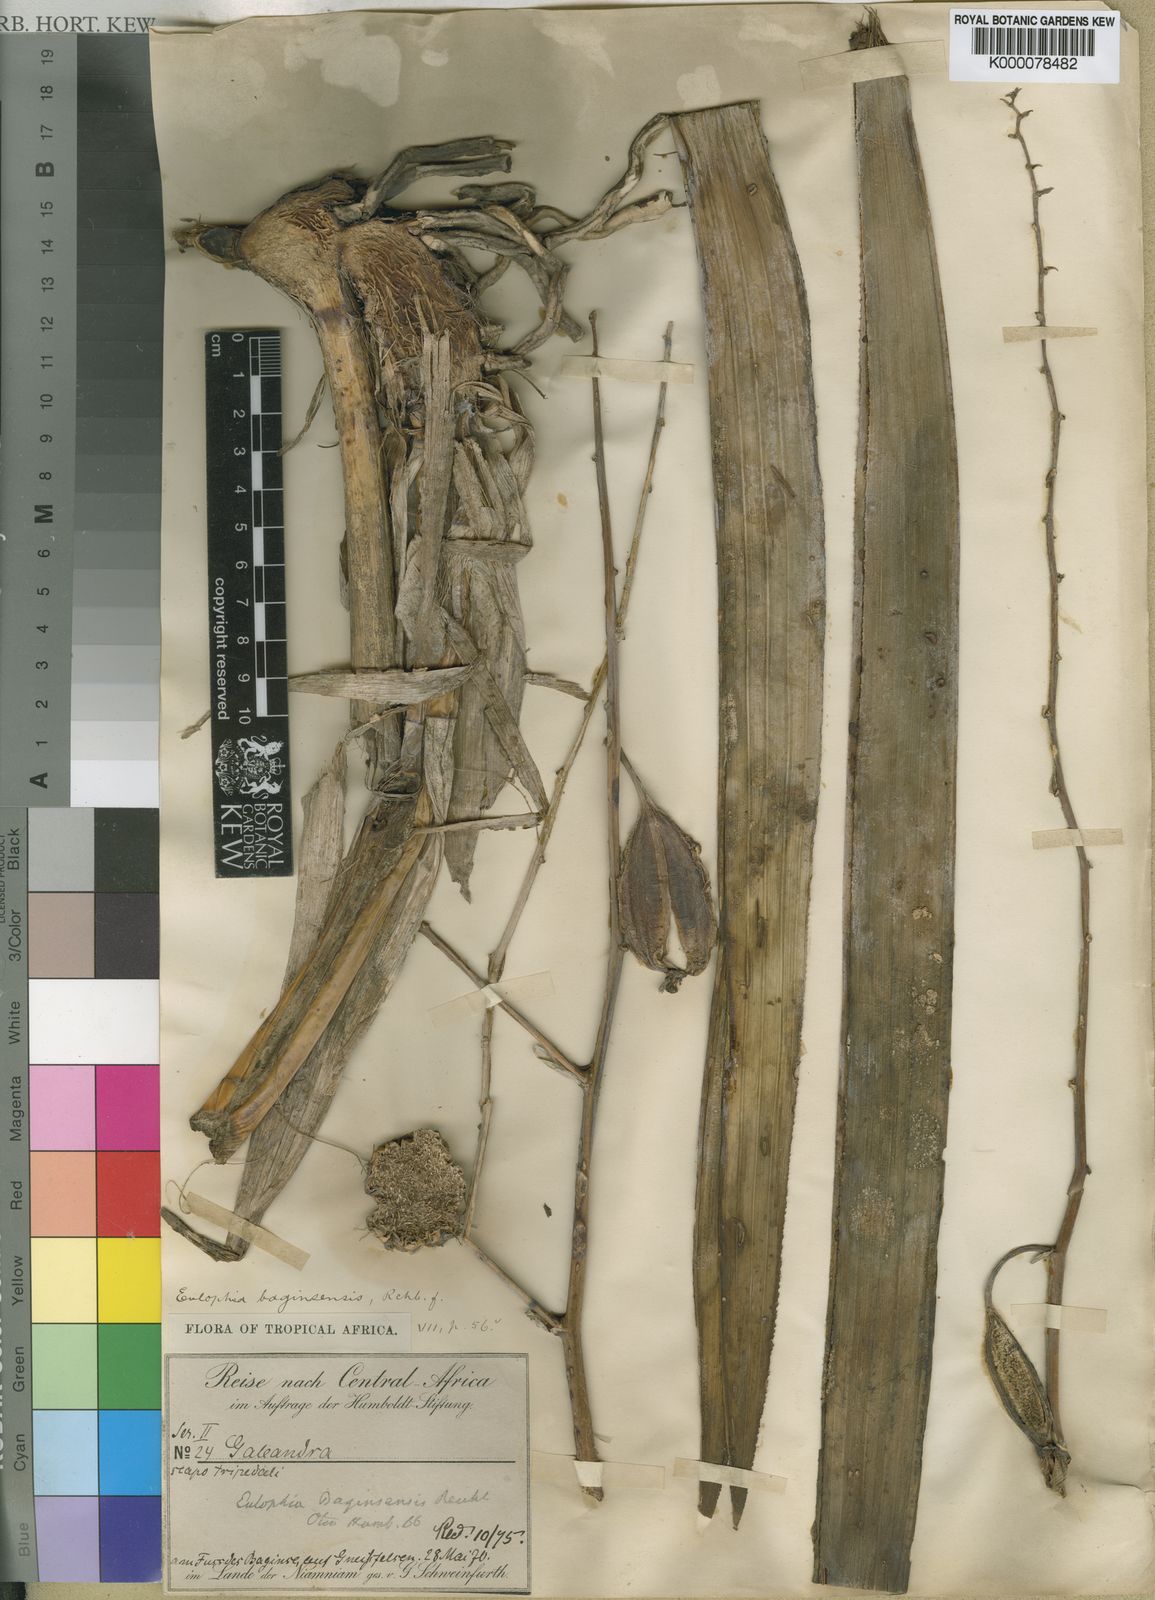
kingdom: Plantae
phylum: Tracheophyta
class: Liliopsida
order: Asparagales
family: Orchidaceae
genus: Eulophia
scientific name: Eulophia petersii
